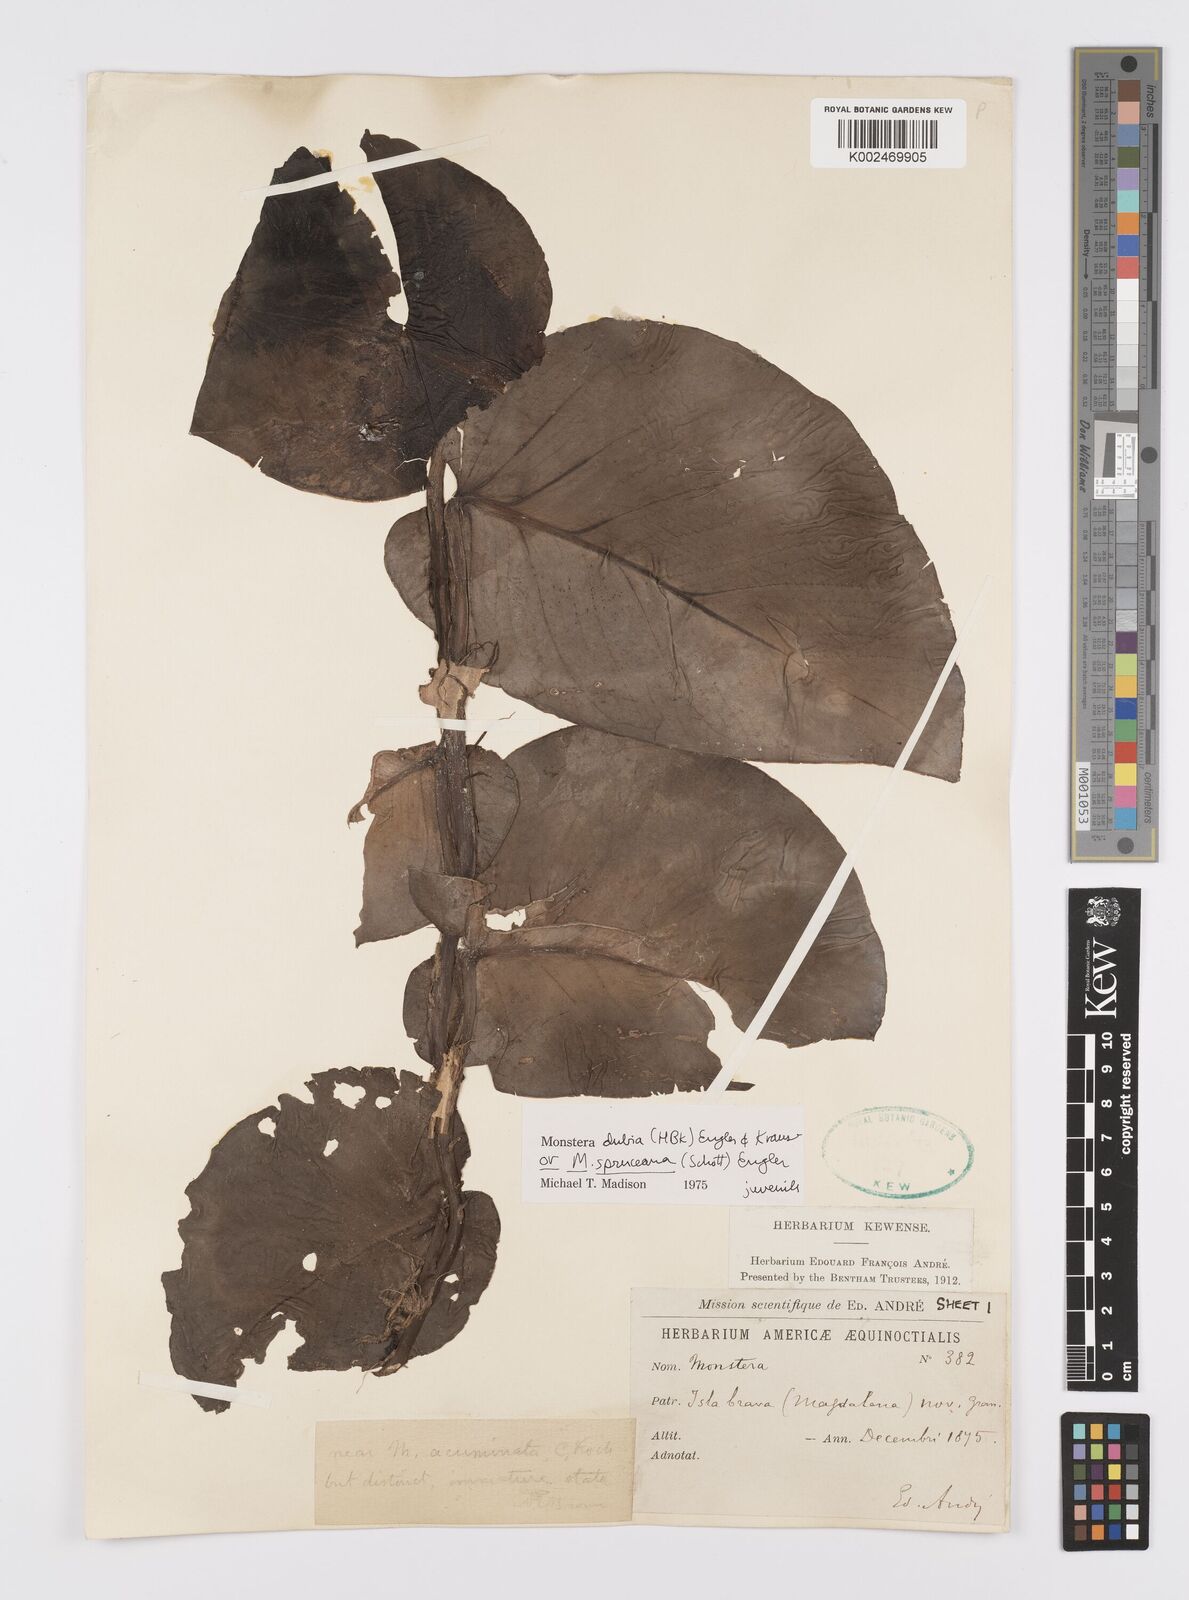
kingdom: Plantae
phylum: Tracheophyta
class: Liliopsida
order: Alismatales
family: Araceae
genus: Monstera
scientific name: Monstera dubia
